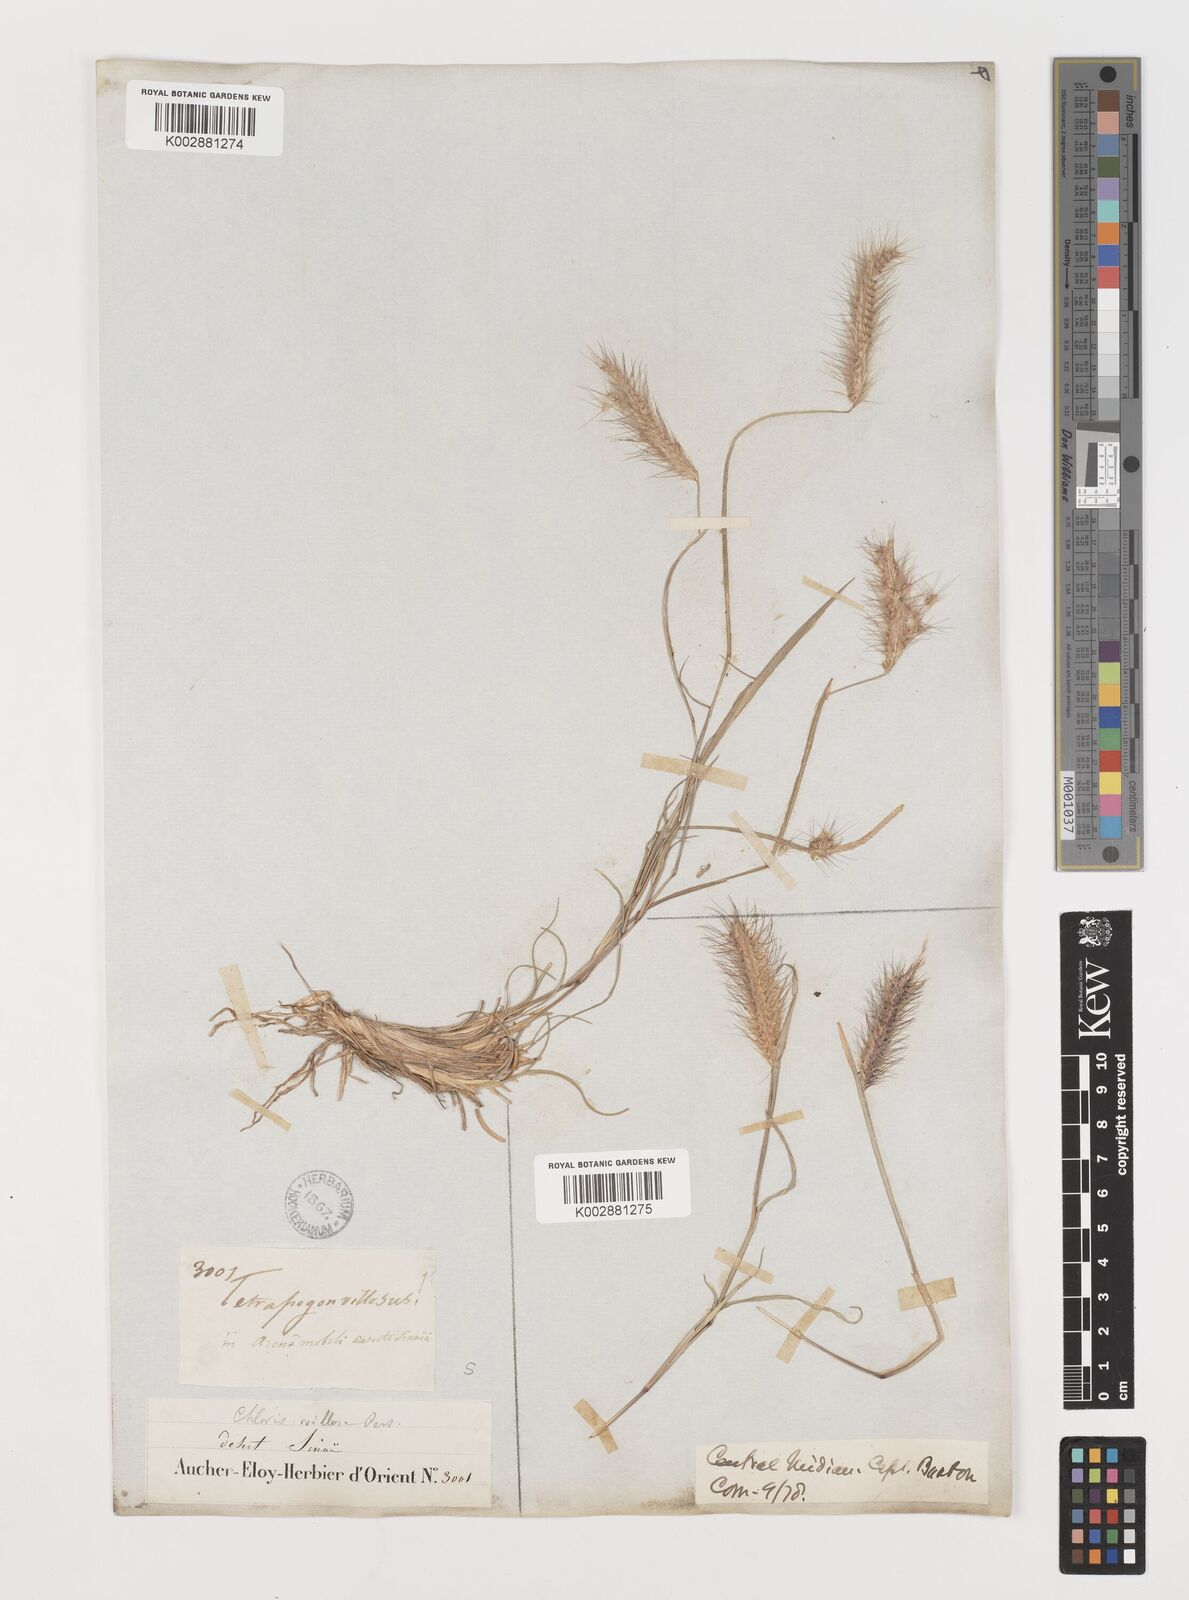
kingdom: Plantae
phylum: Tracheophyta
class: Liliopsida
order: Poales
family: Poaceae
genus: Tetrapogon
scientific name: Tetrapogon villosus
